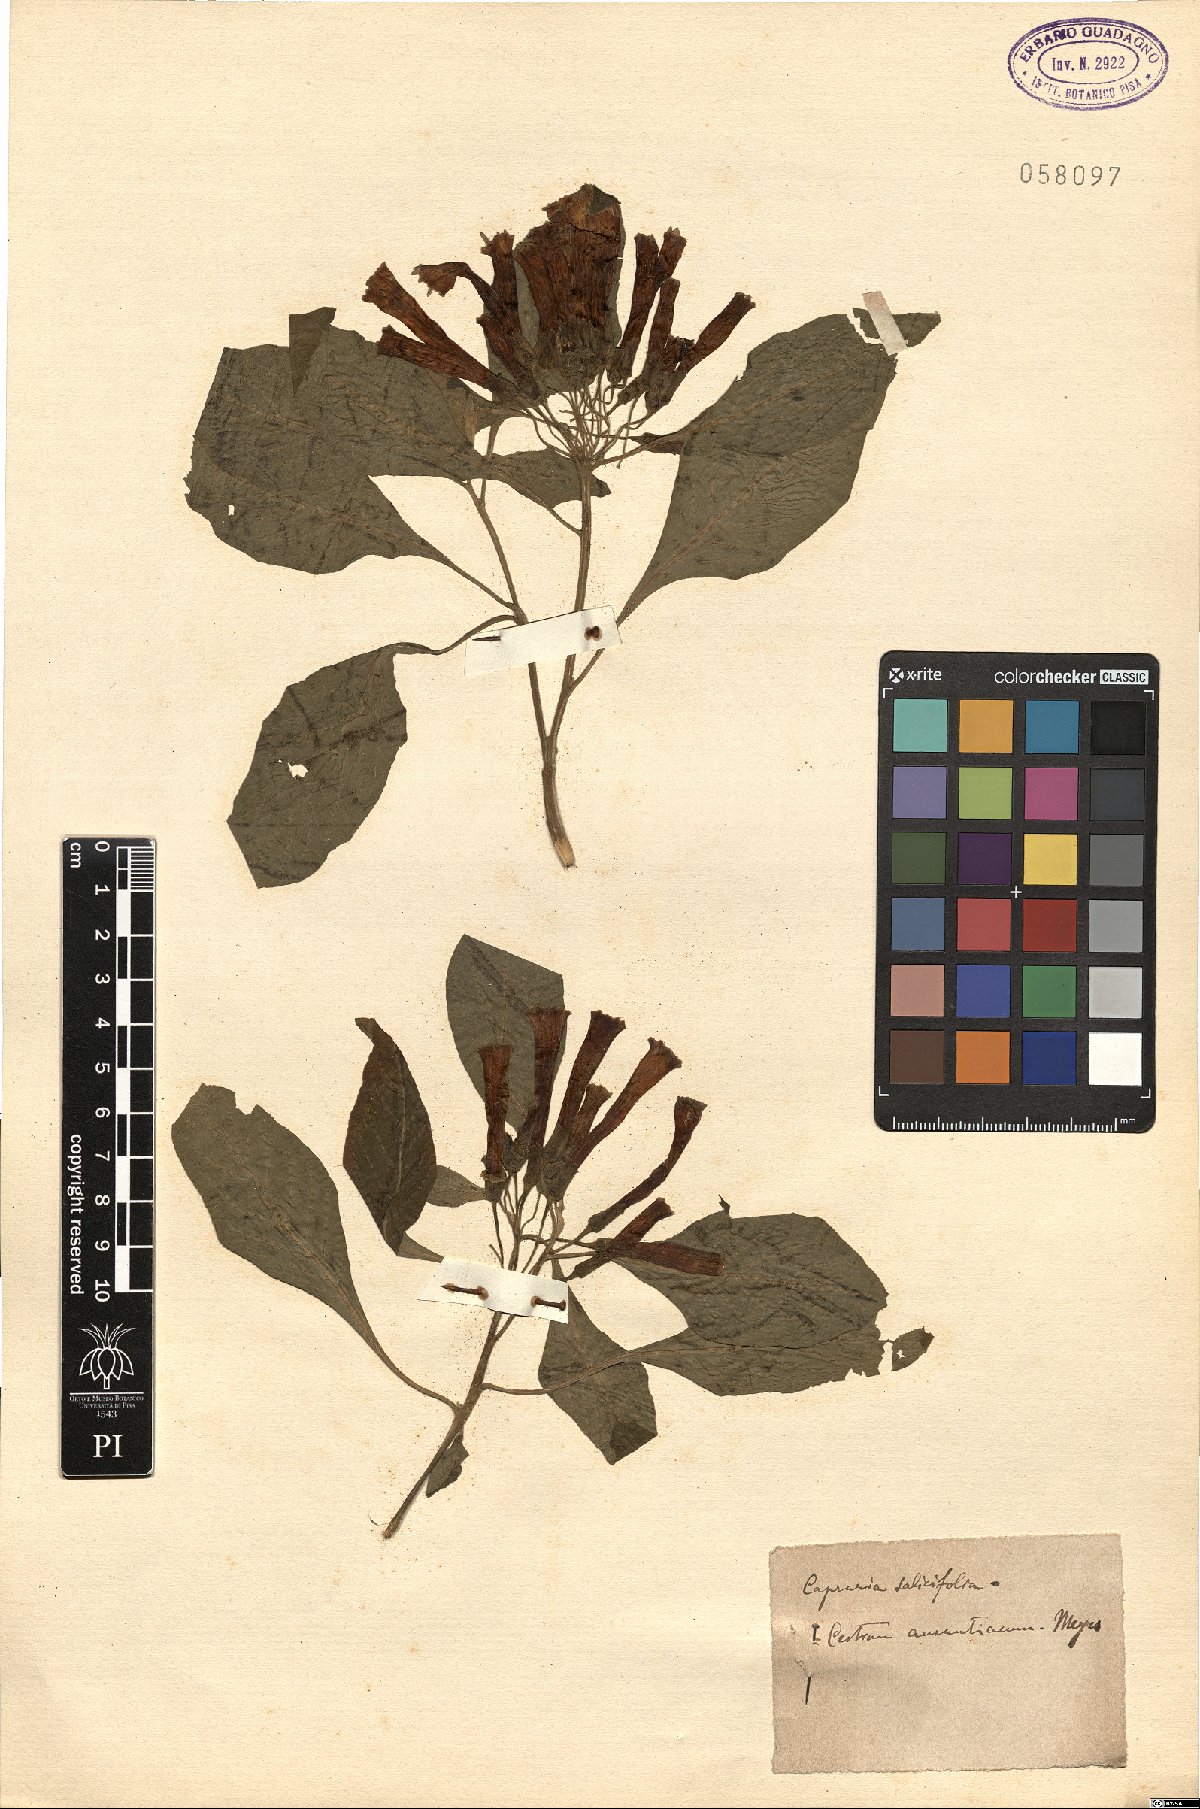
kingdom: Plantae
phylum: Tracheophyta
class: Magnoliopsida
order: Lamiales
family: Scrophulariaceae
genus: Freylinia
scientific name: Freylinia lanceolata
